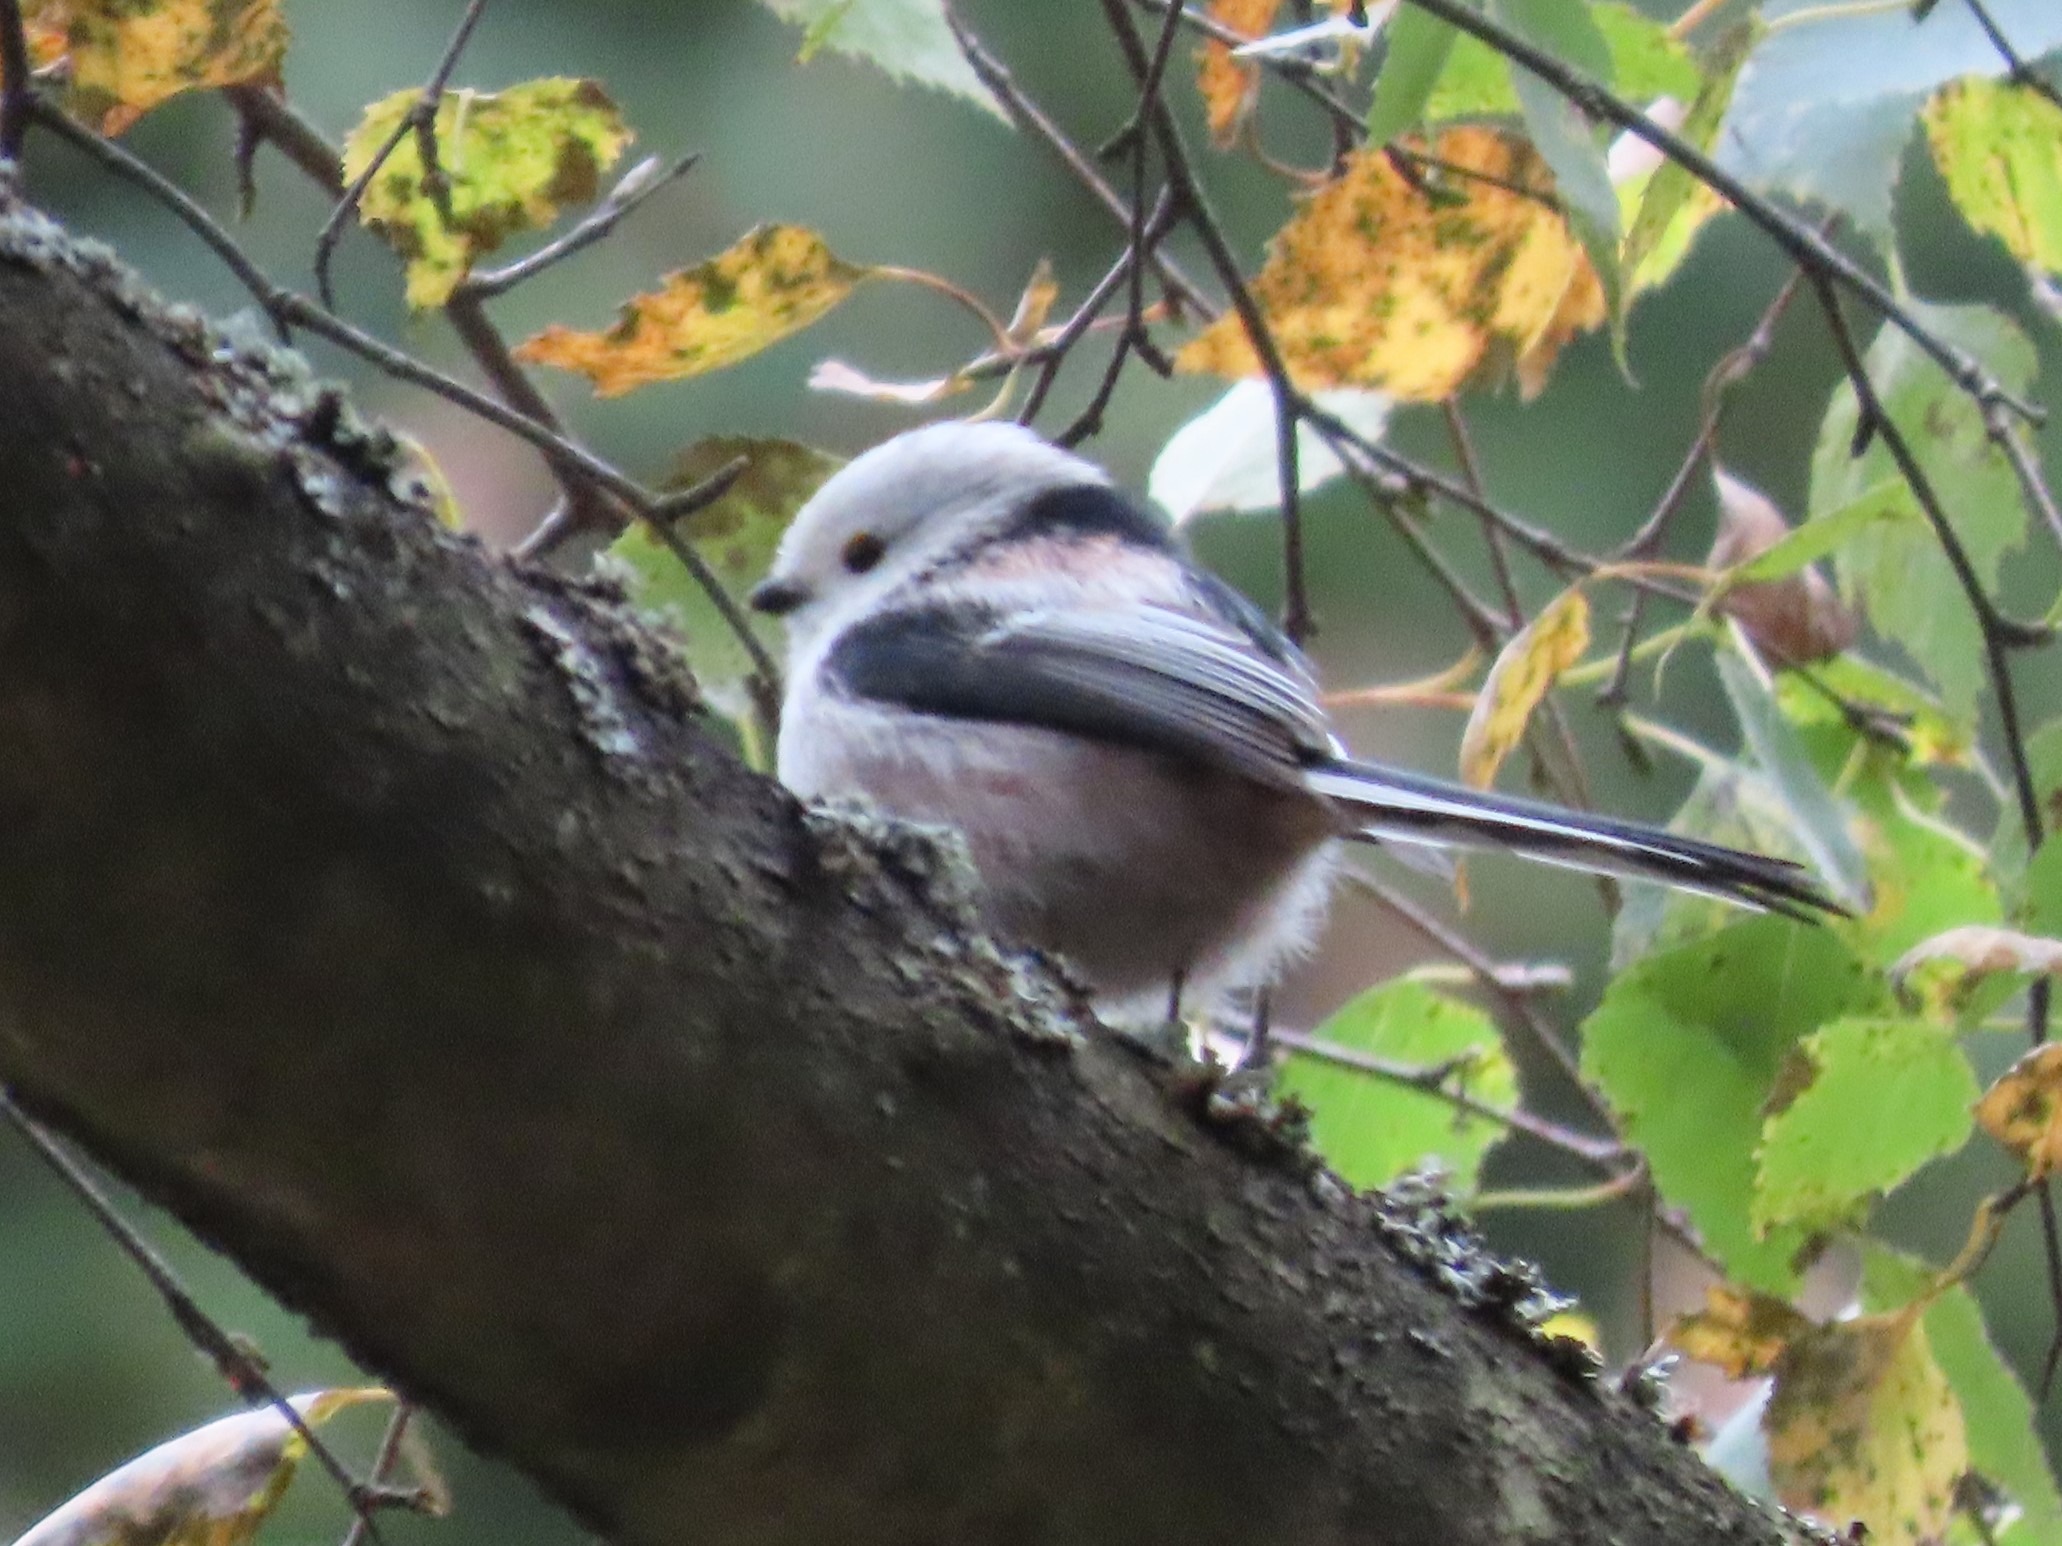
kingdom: Animalia
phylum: Chordata
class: Aves
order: Passeriformes
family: Aegithalidae
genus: Aegithalos
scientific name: Aegithalos caudatus
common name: Halemejse
